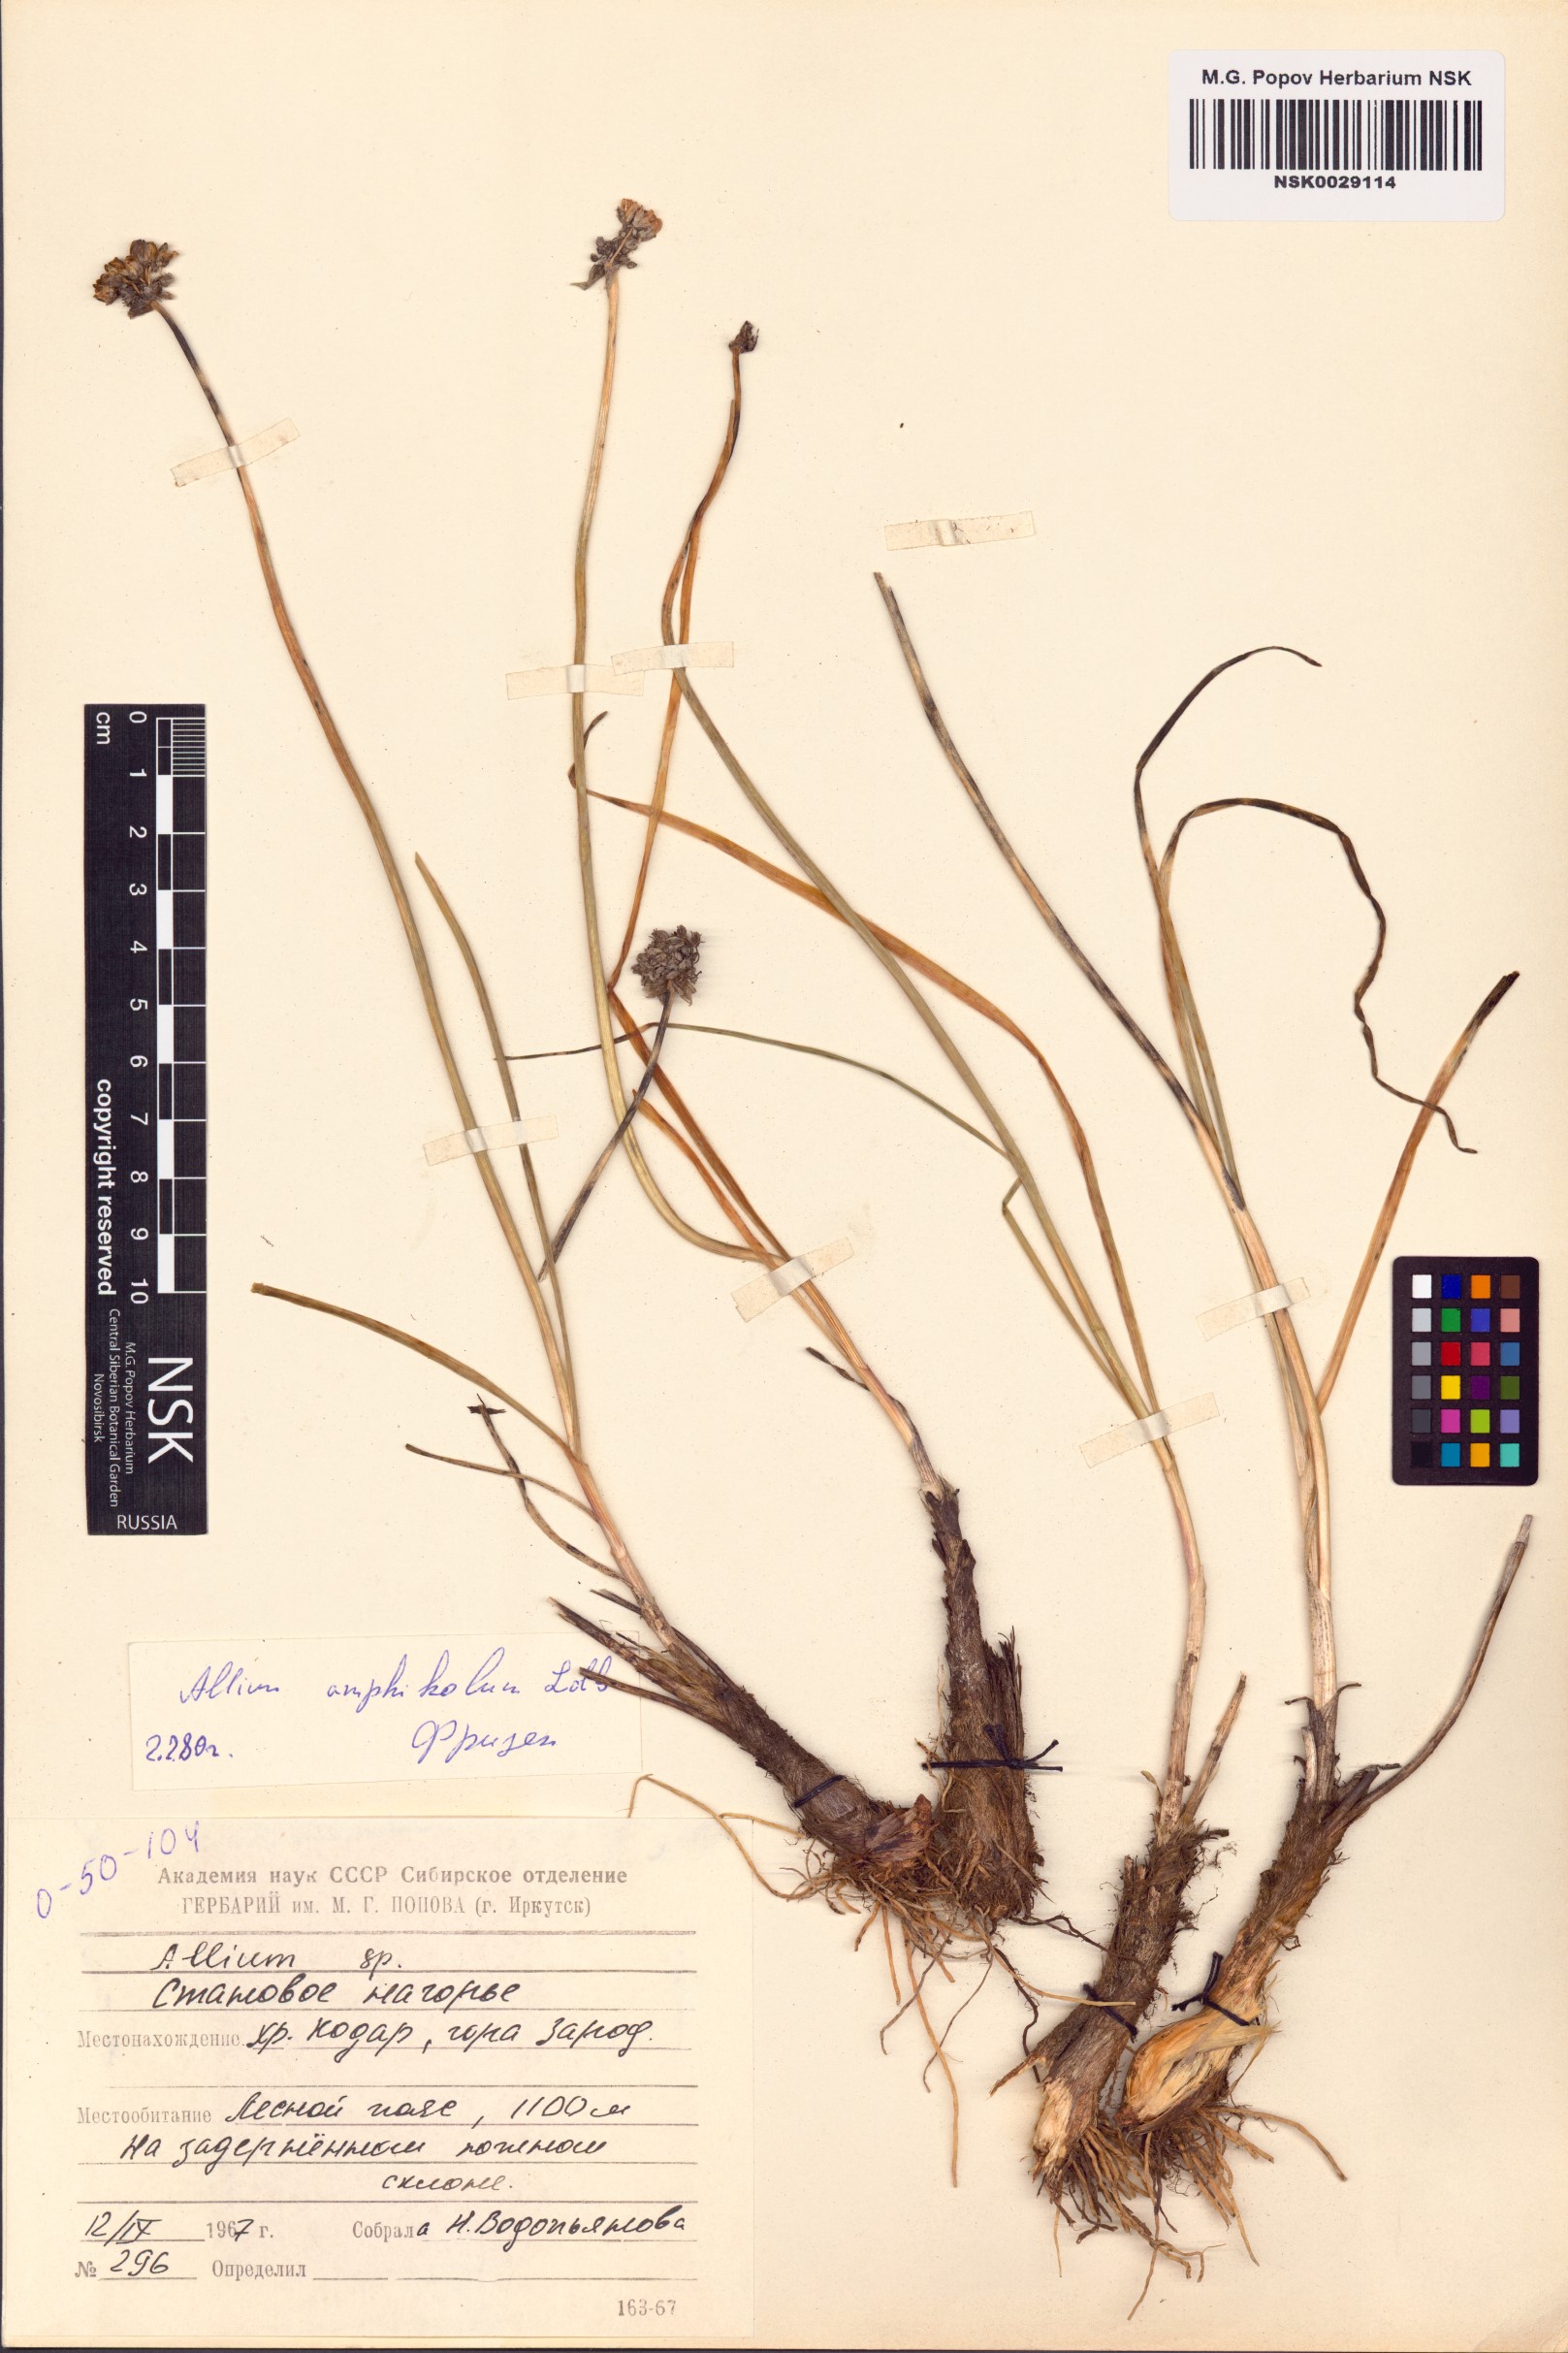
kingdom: Plantae
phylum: Tracheophyta
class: Liliopsida
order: Asparagales
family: Amaryllidaceae
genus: Allium
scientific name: Allium amphibolum
